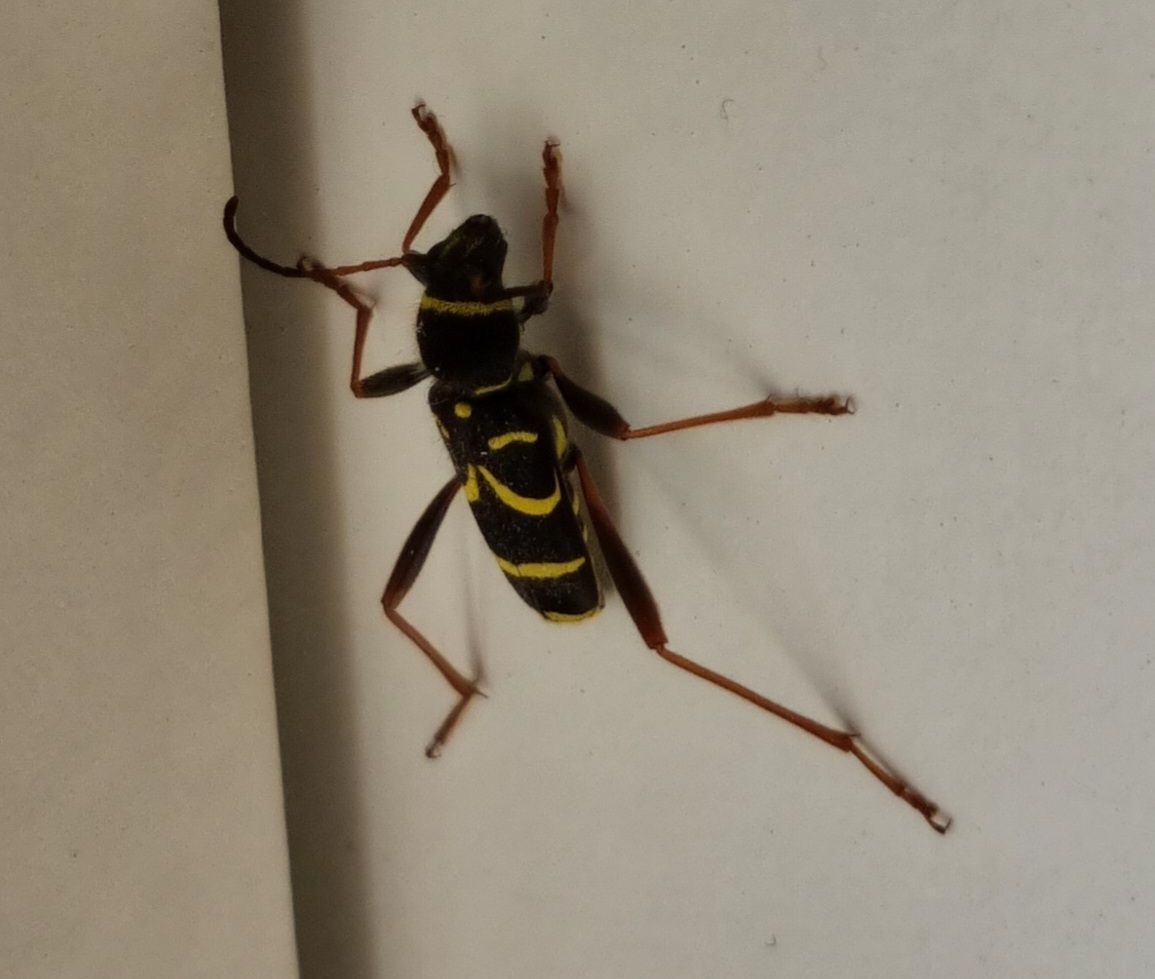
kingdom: Animalia
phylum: Arthropoda
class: Insecta
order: Coleoptera
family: Cerambycidae
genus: Clytus
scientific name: Clytus arietis
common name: Lille hvepsebuk
